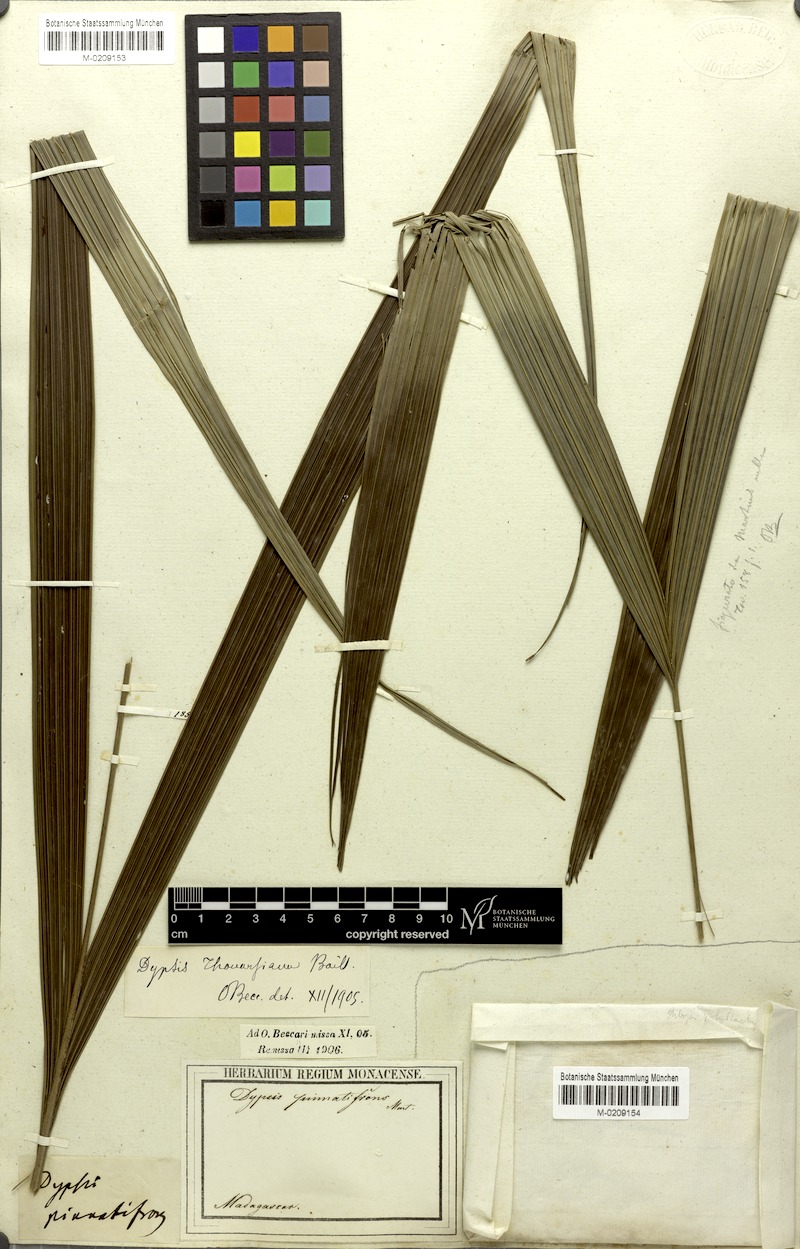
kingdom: Plantae
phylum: Tracheophyta
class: Liliopsida
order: Arecales
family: Arecaceae
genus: Dypsis
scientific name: Dypsis thouarsiana
